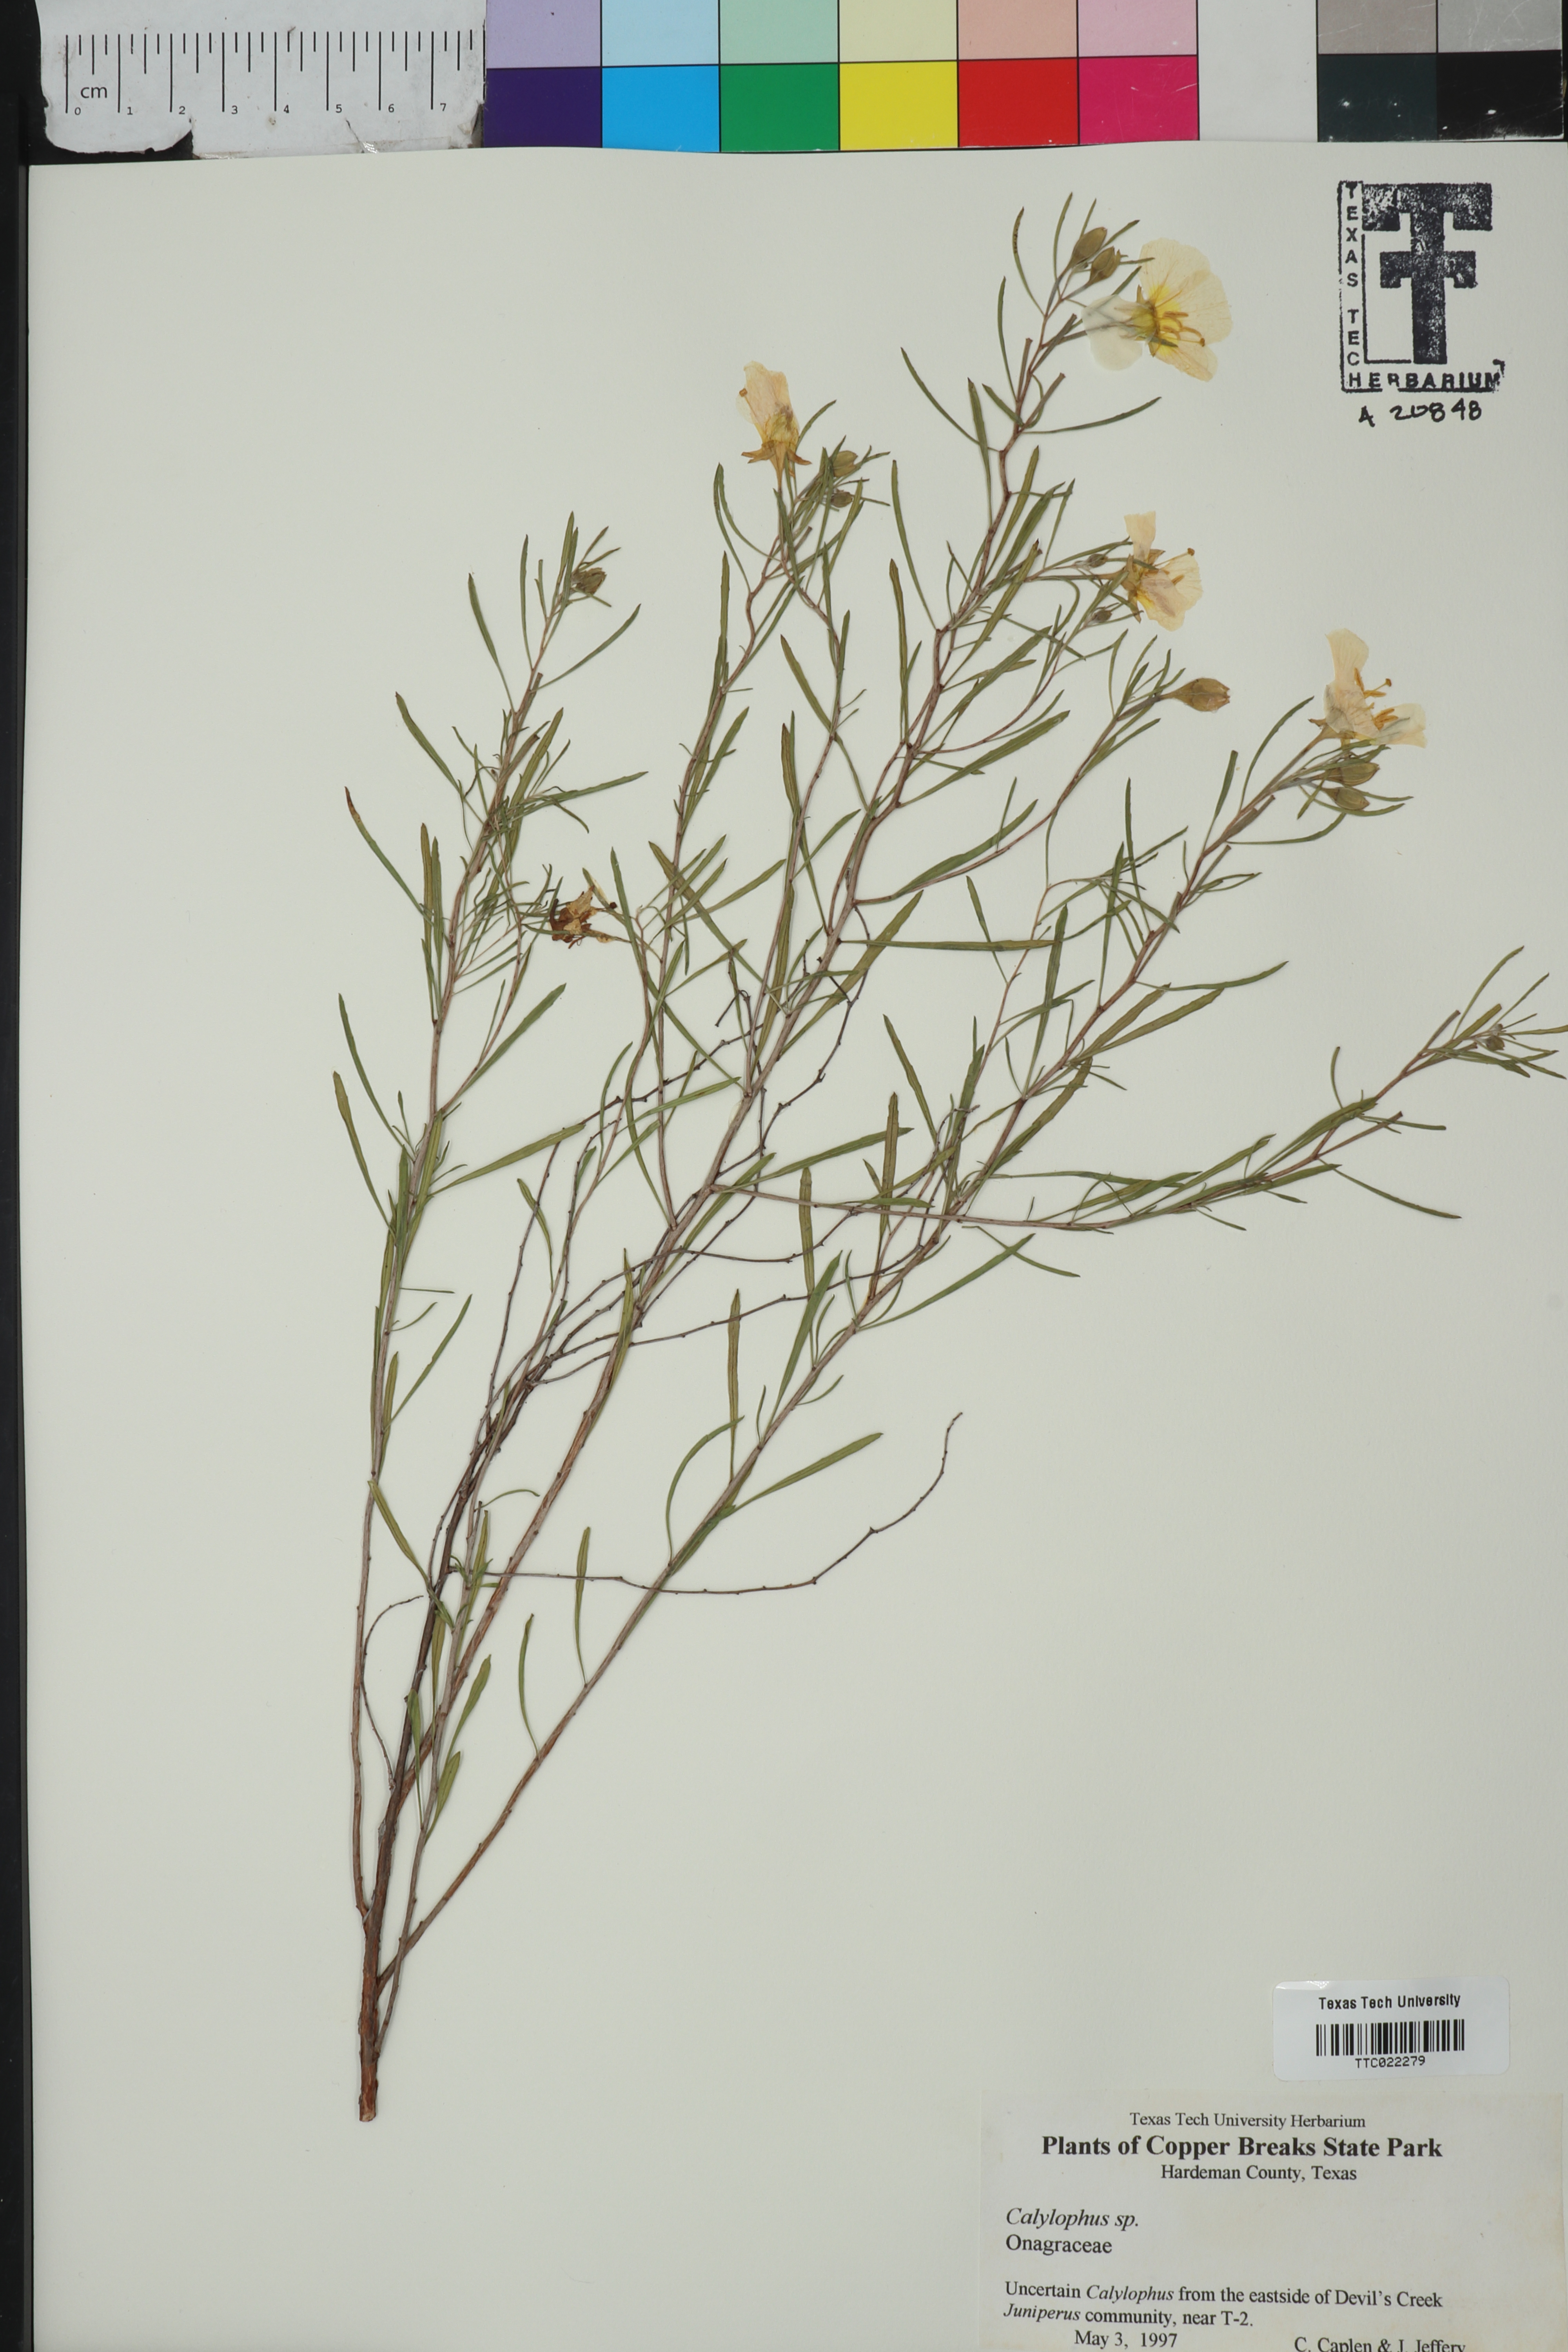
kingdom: Plantae
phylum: Tracheophyta
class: Magnoliopsida
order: Myrtales
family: Onagraceae
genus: Oenothera
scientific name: Oenothera
